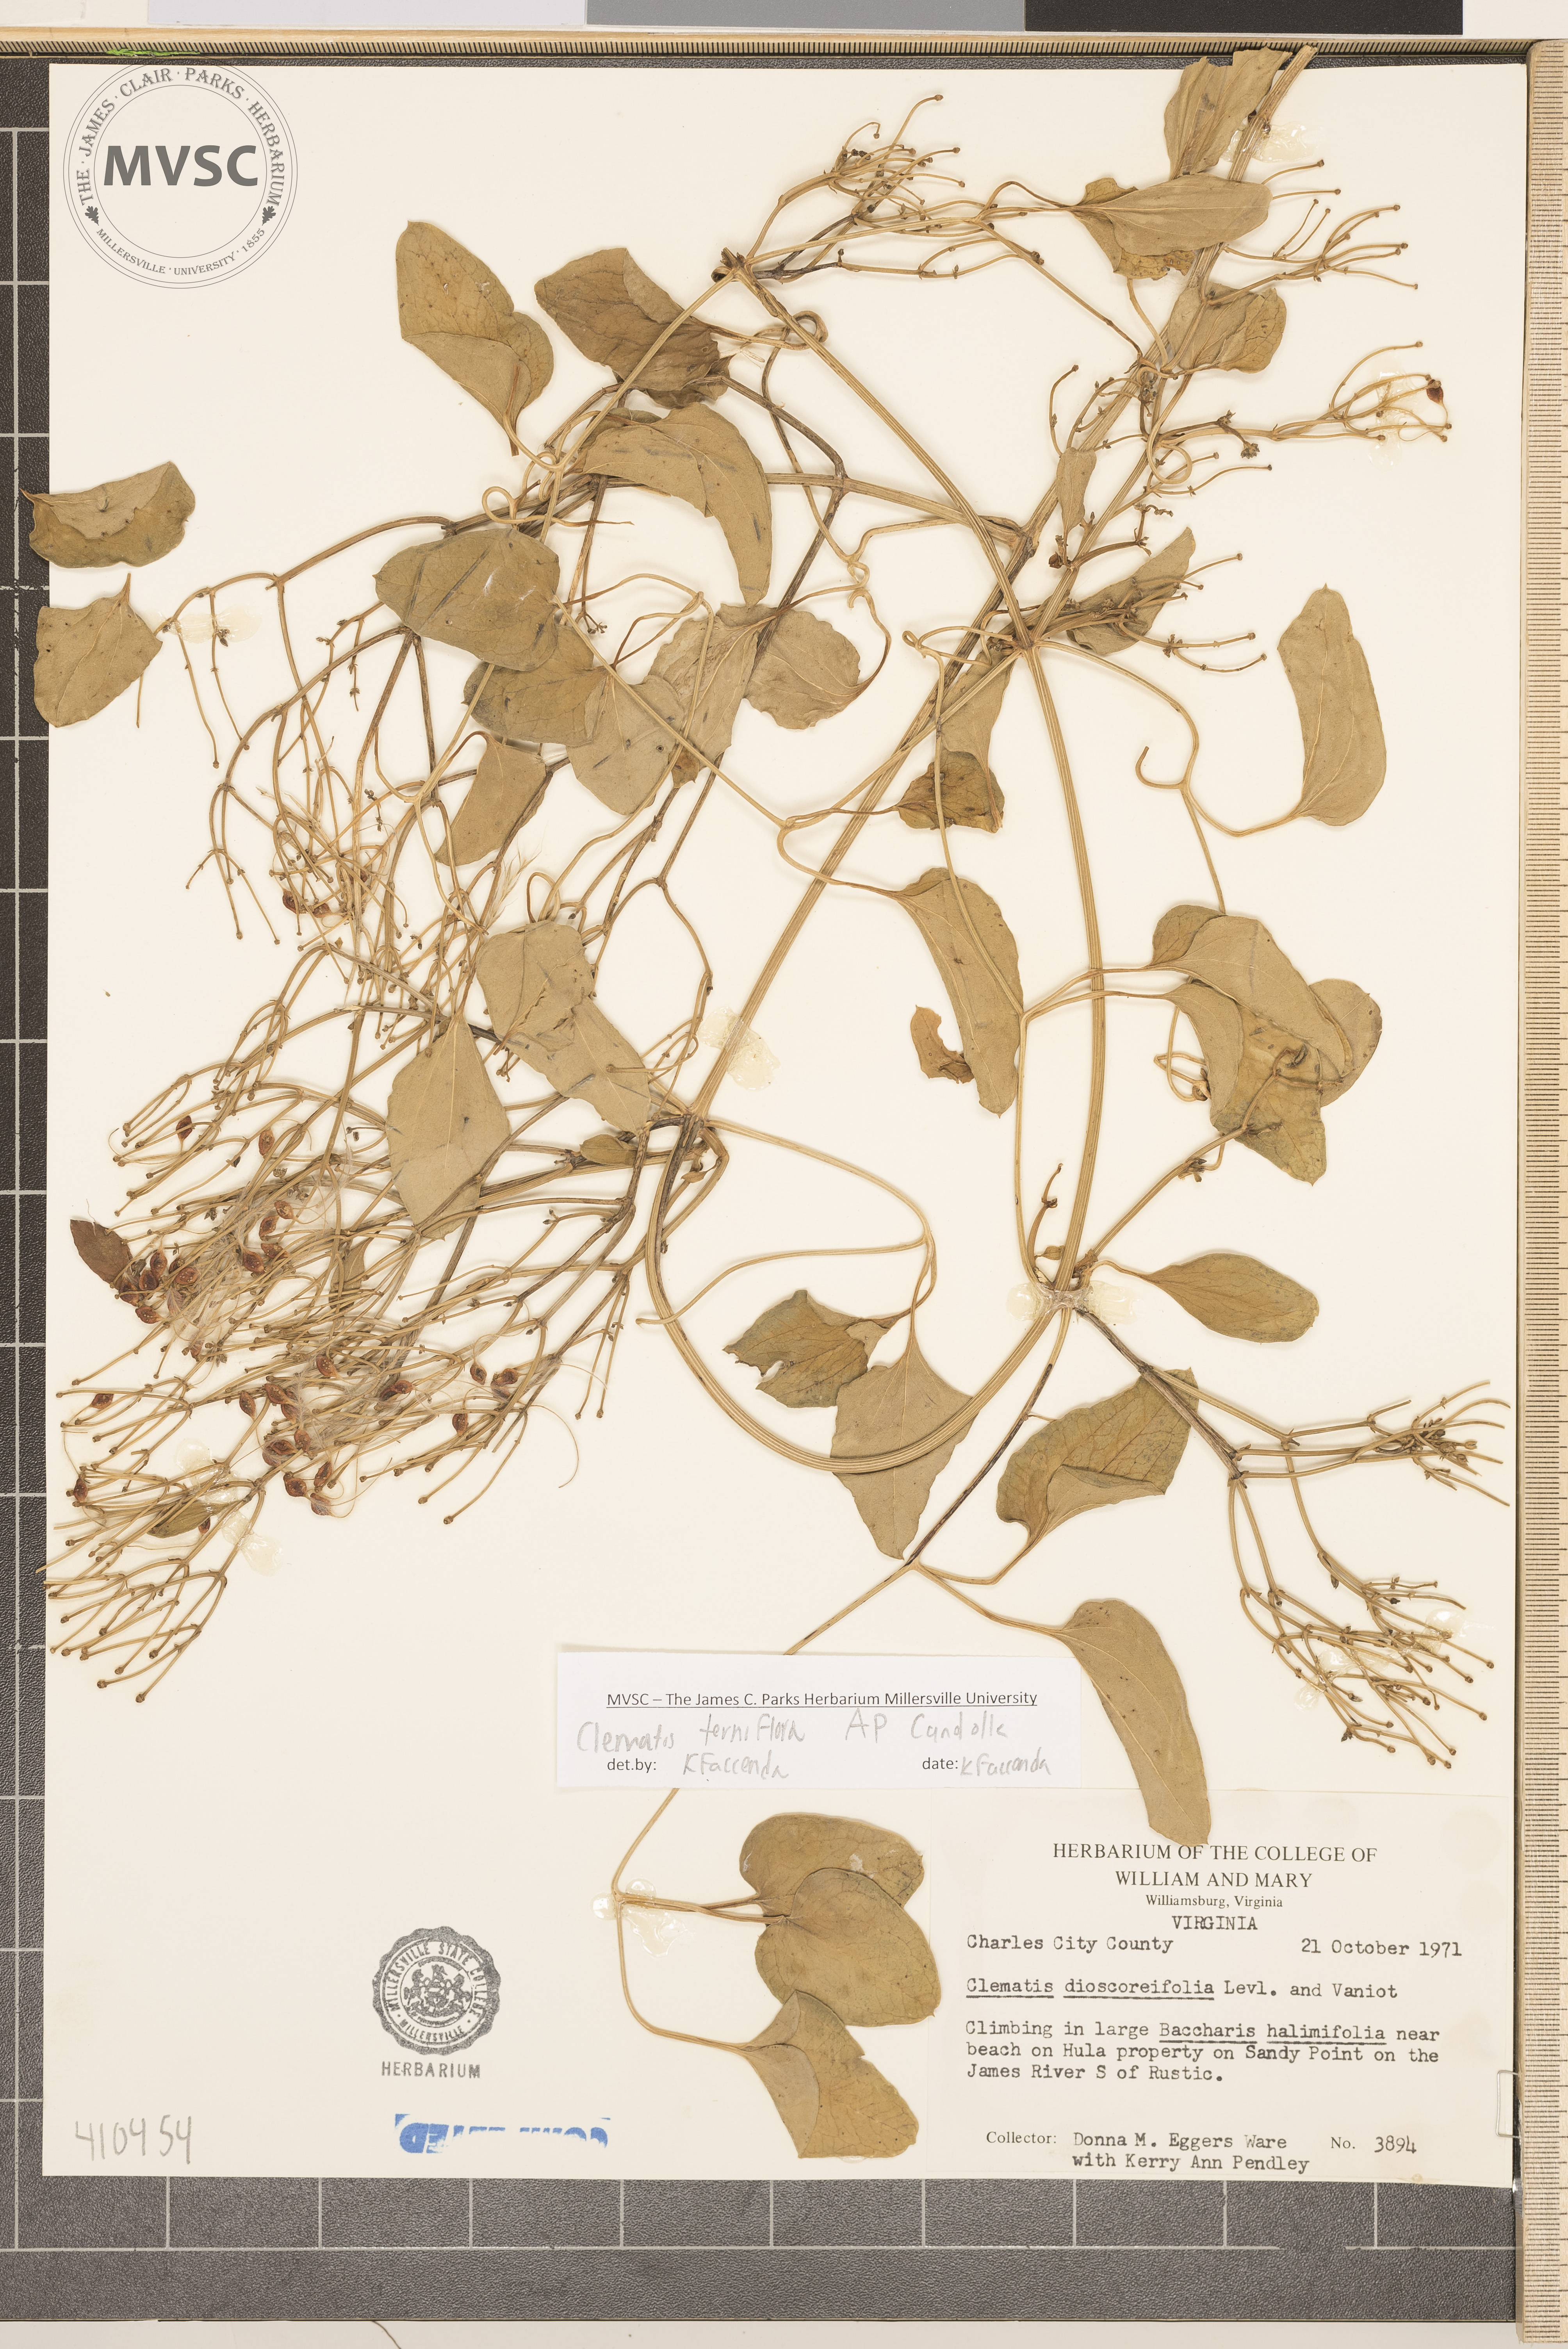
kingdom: Plantae
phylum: Tracheophyta
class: Magnoliopsida
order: Ranunculales
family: Ranunculaceae
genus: Clematis
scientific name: Clematis terniflora
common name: Sweet autumn clematis
